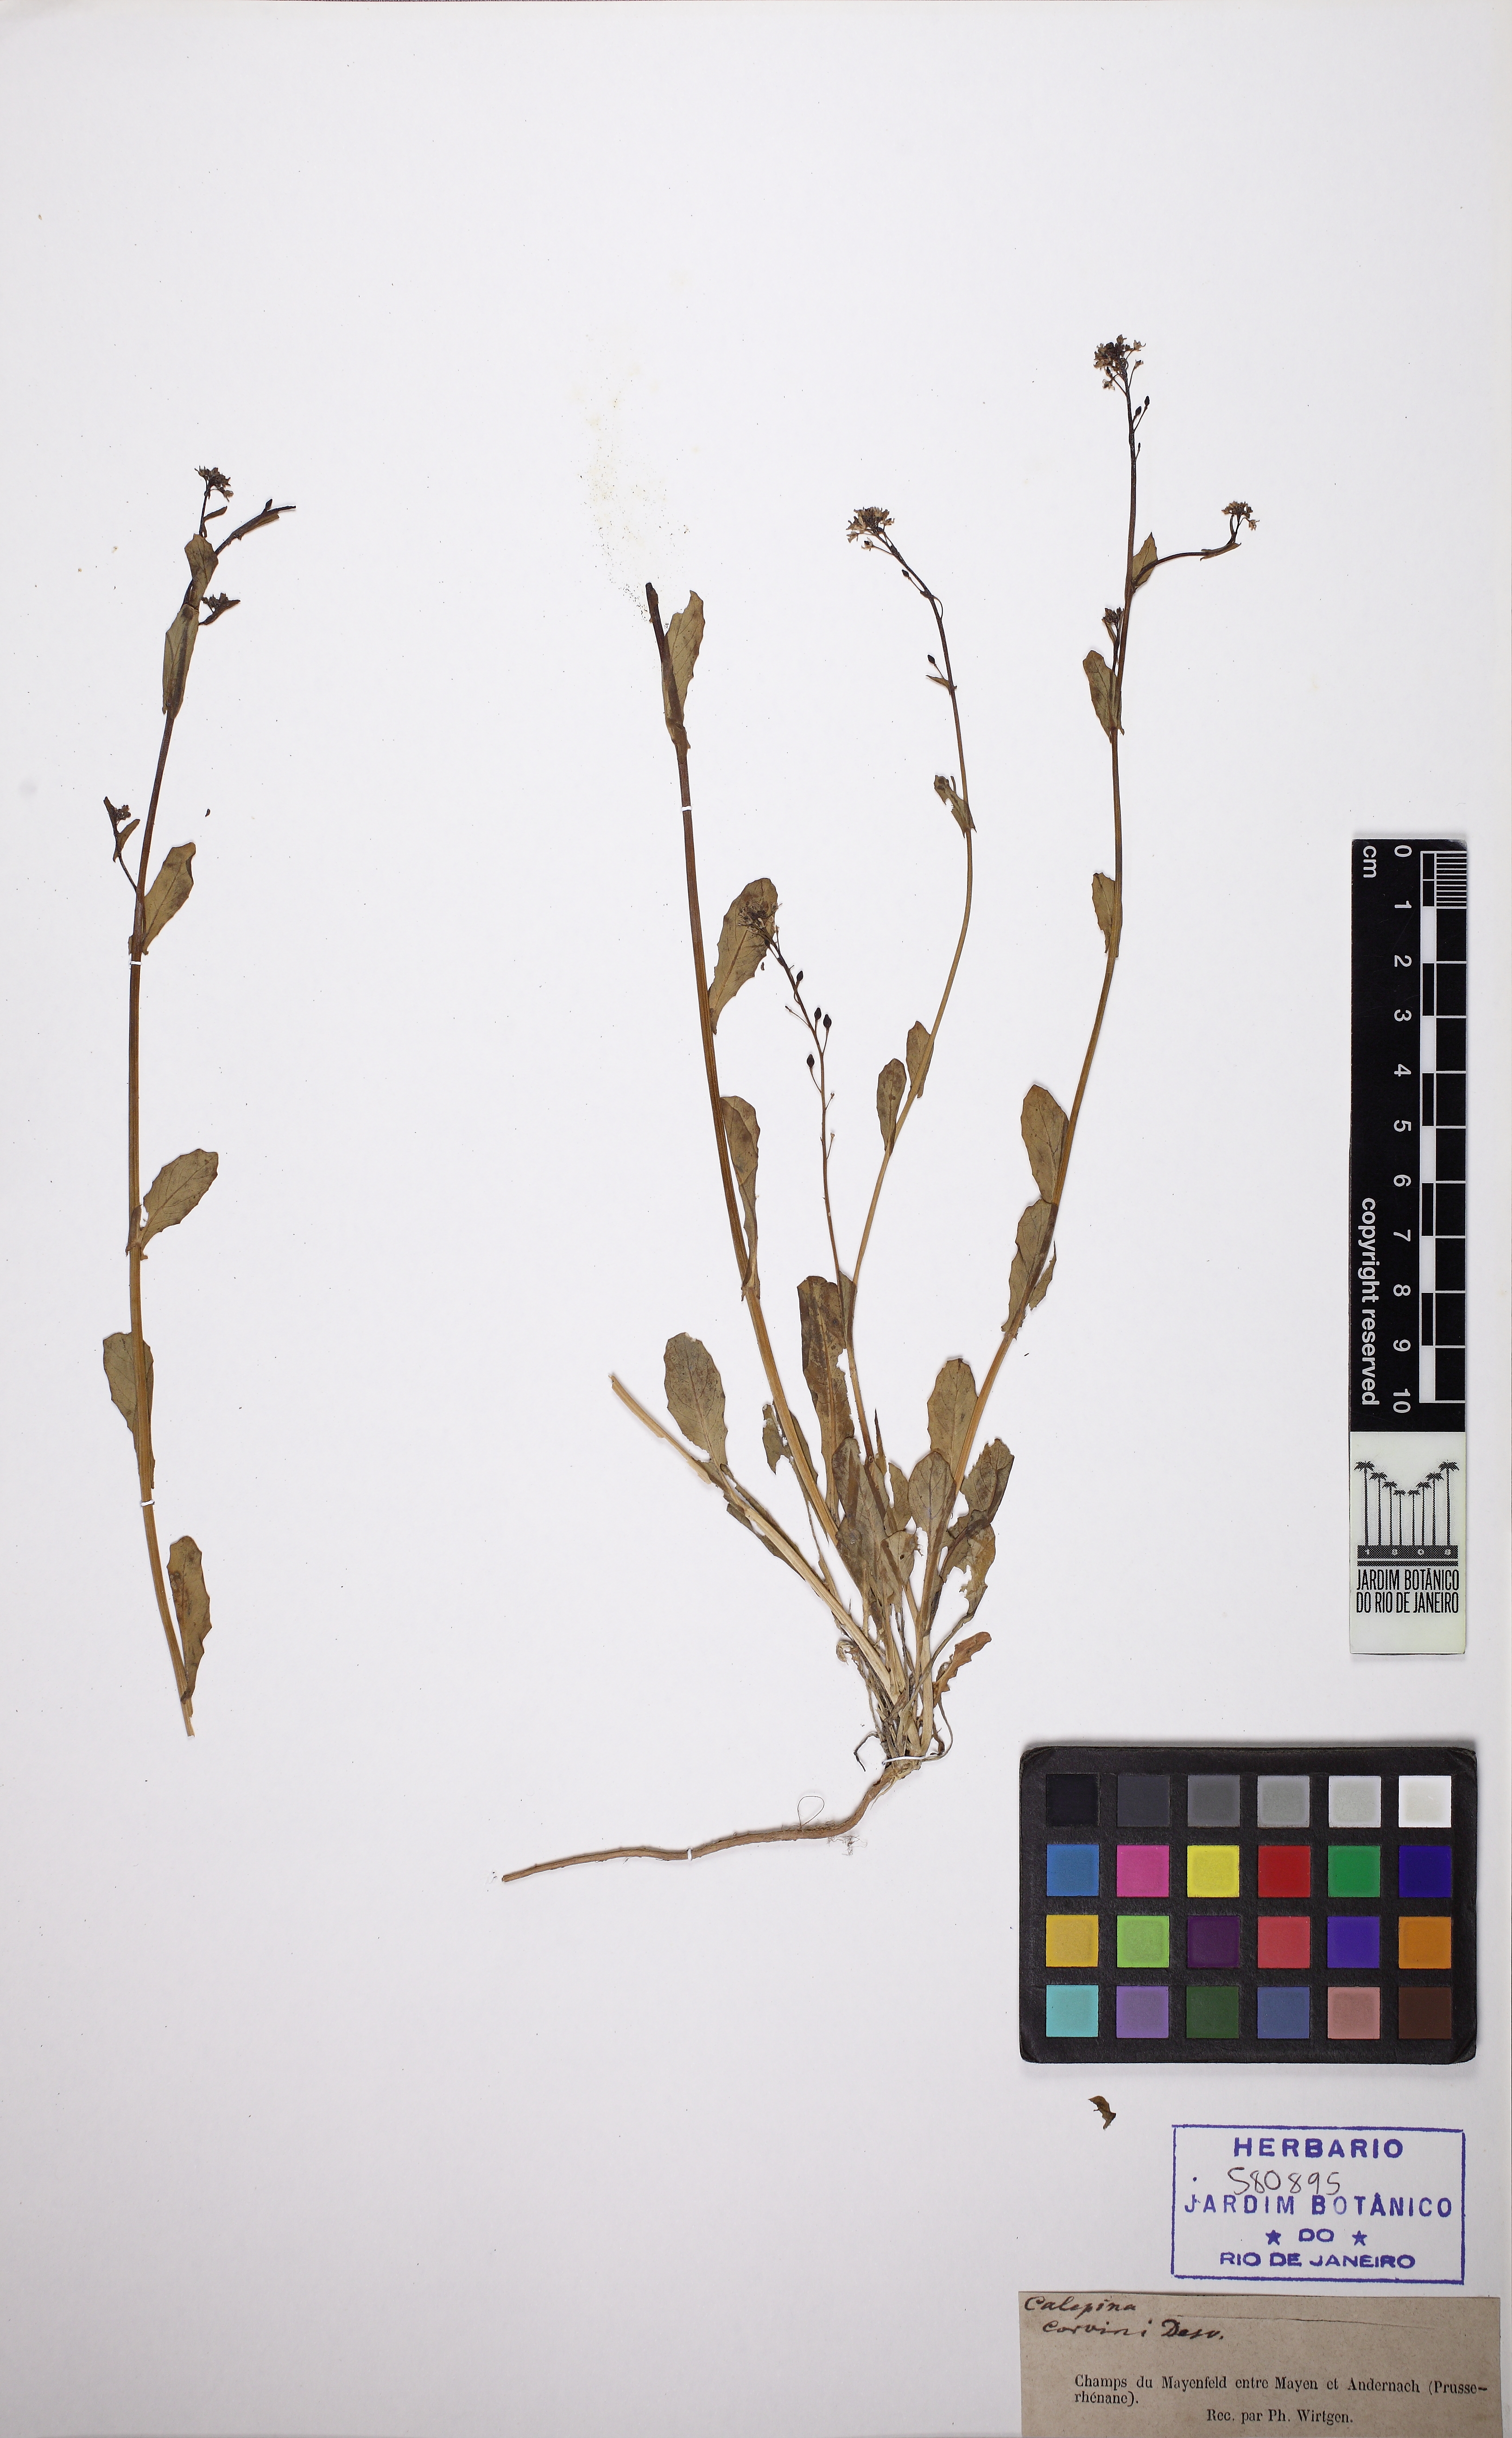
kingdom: Plantae
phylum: Tracheophyta
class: Magnoliopsida
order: Brassicales
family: Brassicaceae
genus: Calepina
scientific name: Calepina irregularis
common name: White ballmustard
